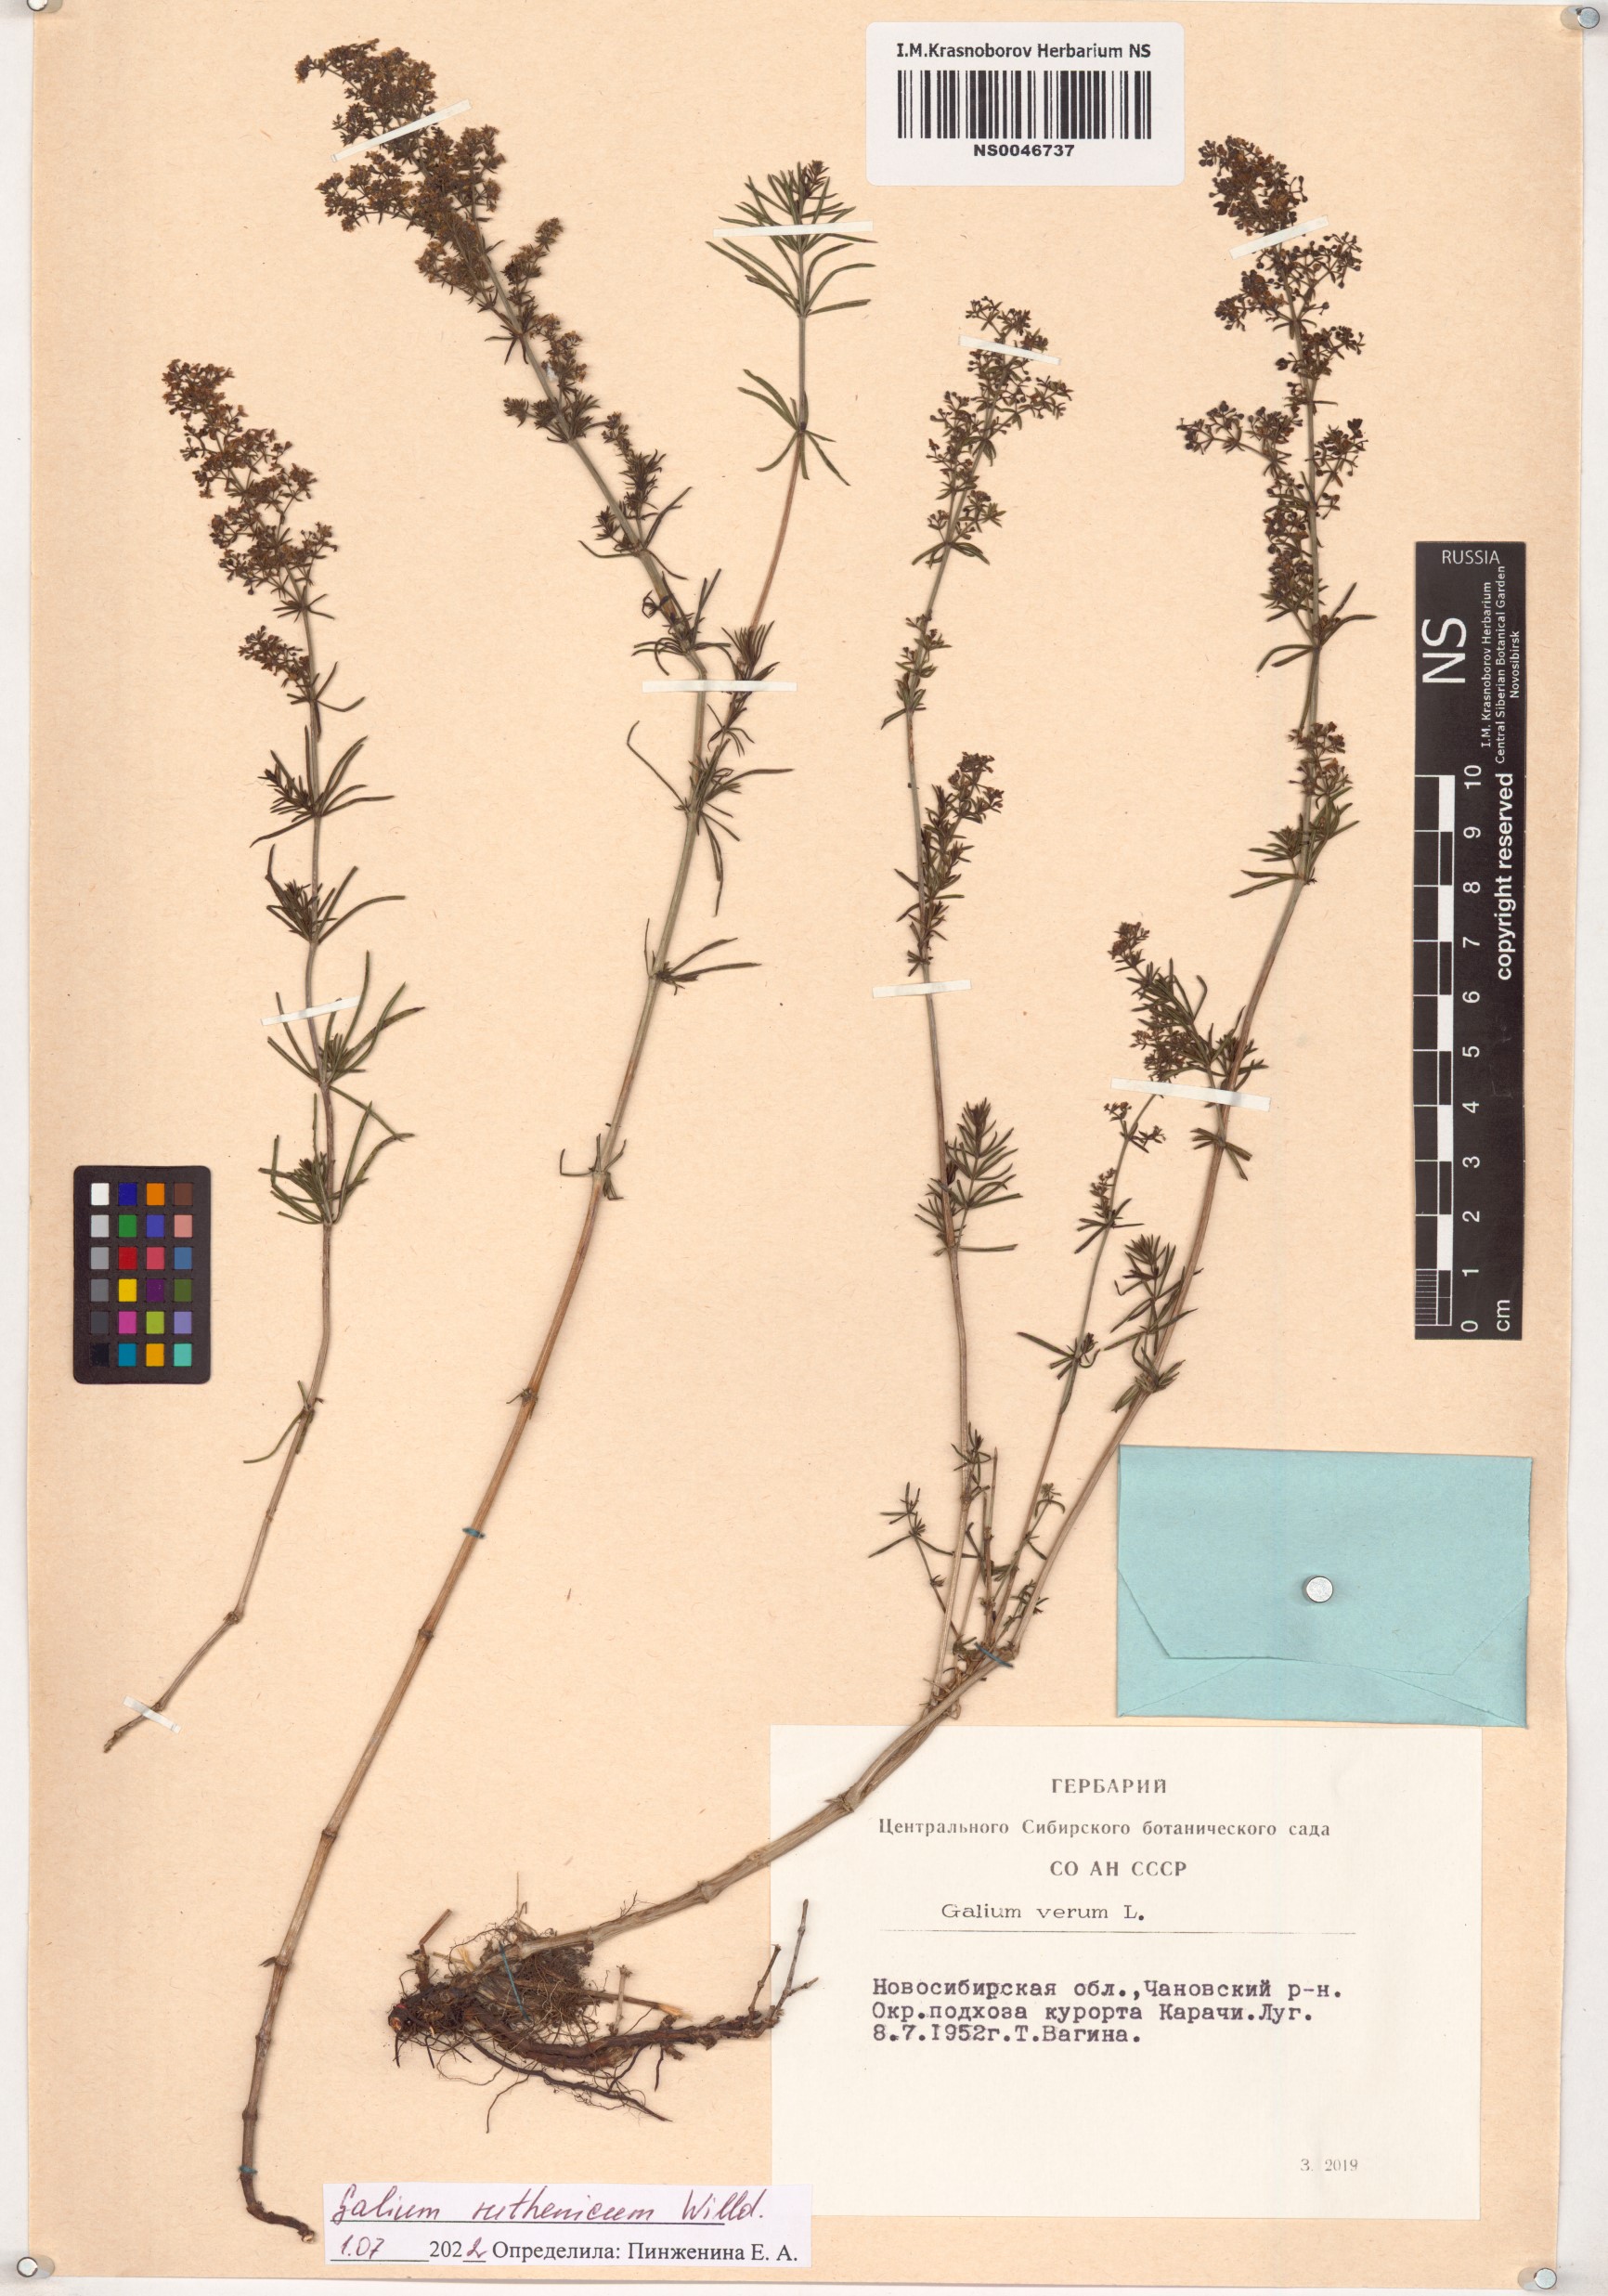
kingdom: Plantae
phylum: Tracheophyta
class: Magnoliopsida
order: Gentianales
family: Rubiaceae
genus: Galium
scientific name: Galium verum
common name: Lady's bedstraw
